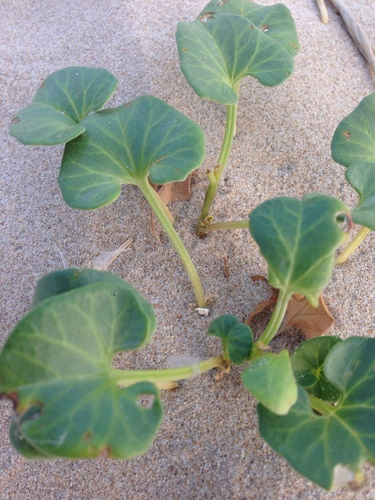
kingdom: Plantae
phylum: Tracheophyta
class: Magnoliopsida
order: Solanales
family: Convolvulaceae
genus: Calystegia
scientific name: Calystegia soldanella
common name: Sea bindweed
